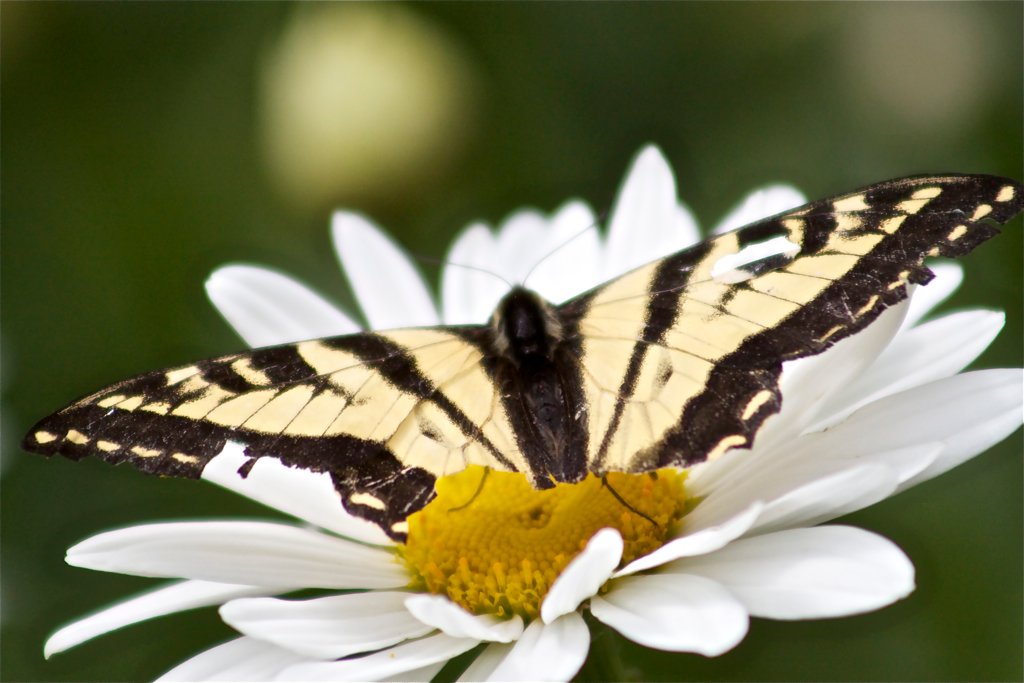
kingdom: Animalia
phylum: Arthropoda
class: Insecta
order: Lepidoptera
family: Papilionidae
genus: Pterourus
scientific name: Pterourus rutulus
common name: Western Tiger Swallowtail
